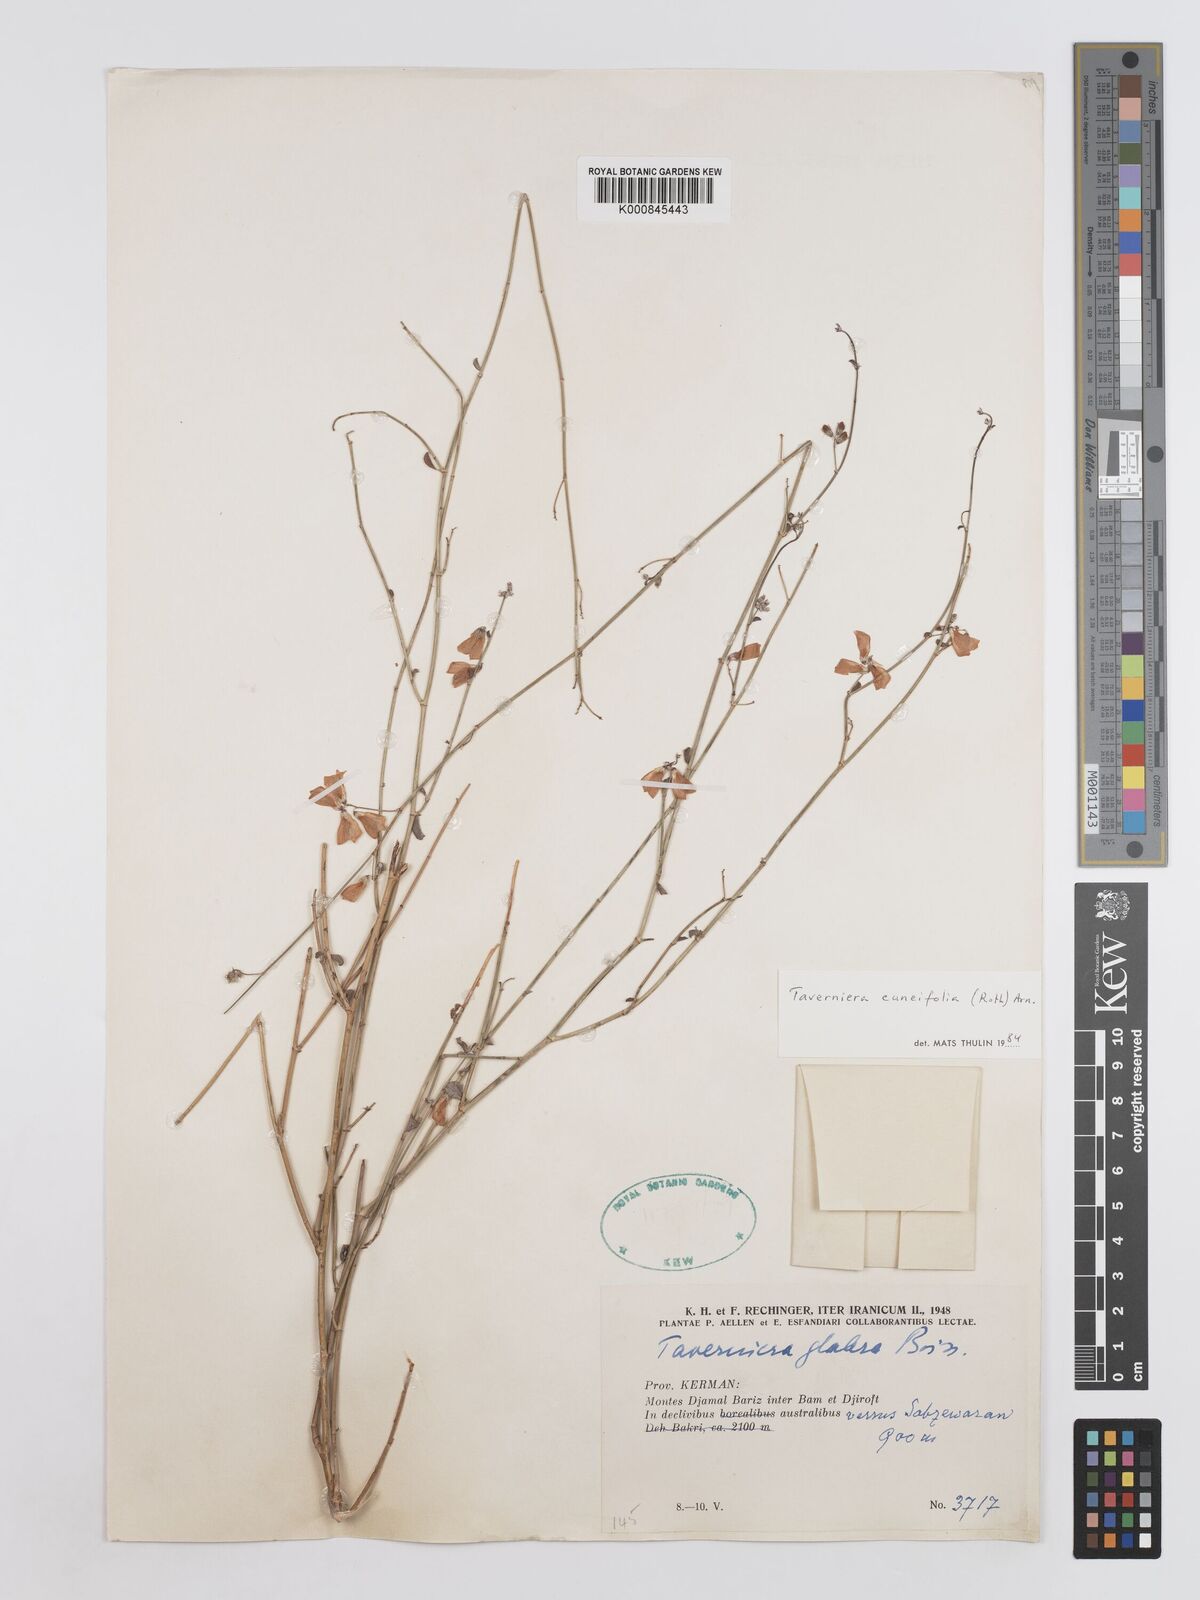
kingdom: Plantae
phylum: Tracheophyta
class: Magnoliopsida
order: Fabales
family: Fabaceae
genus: Taverniera
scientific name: Taverniera
